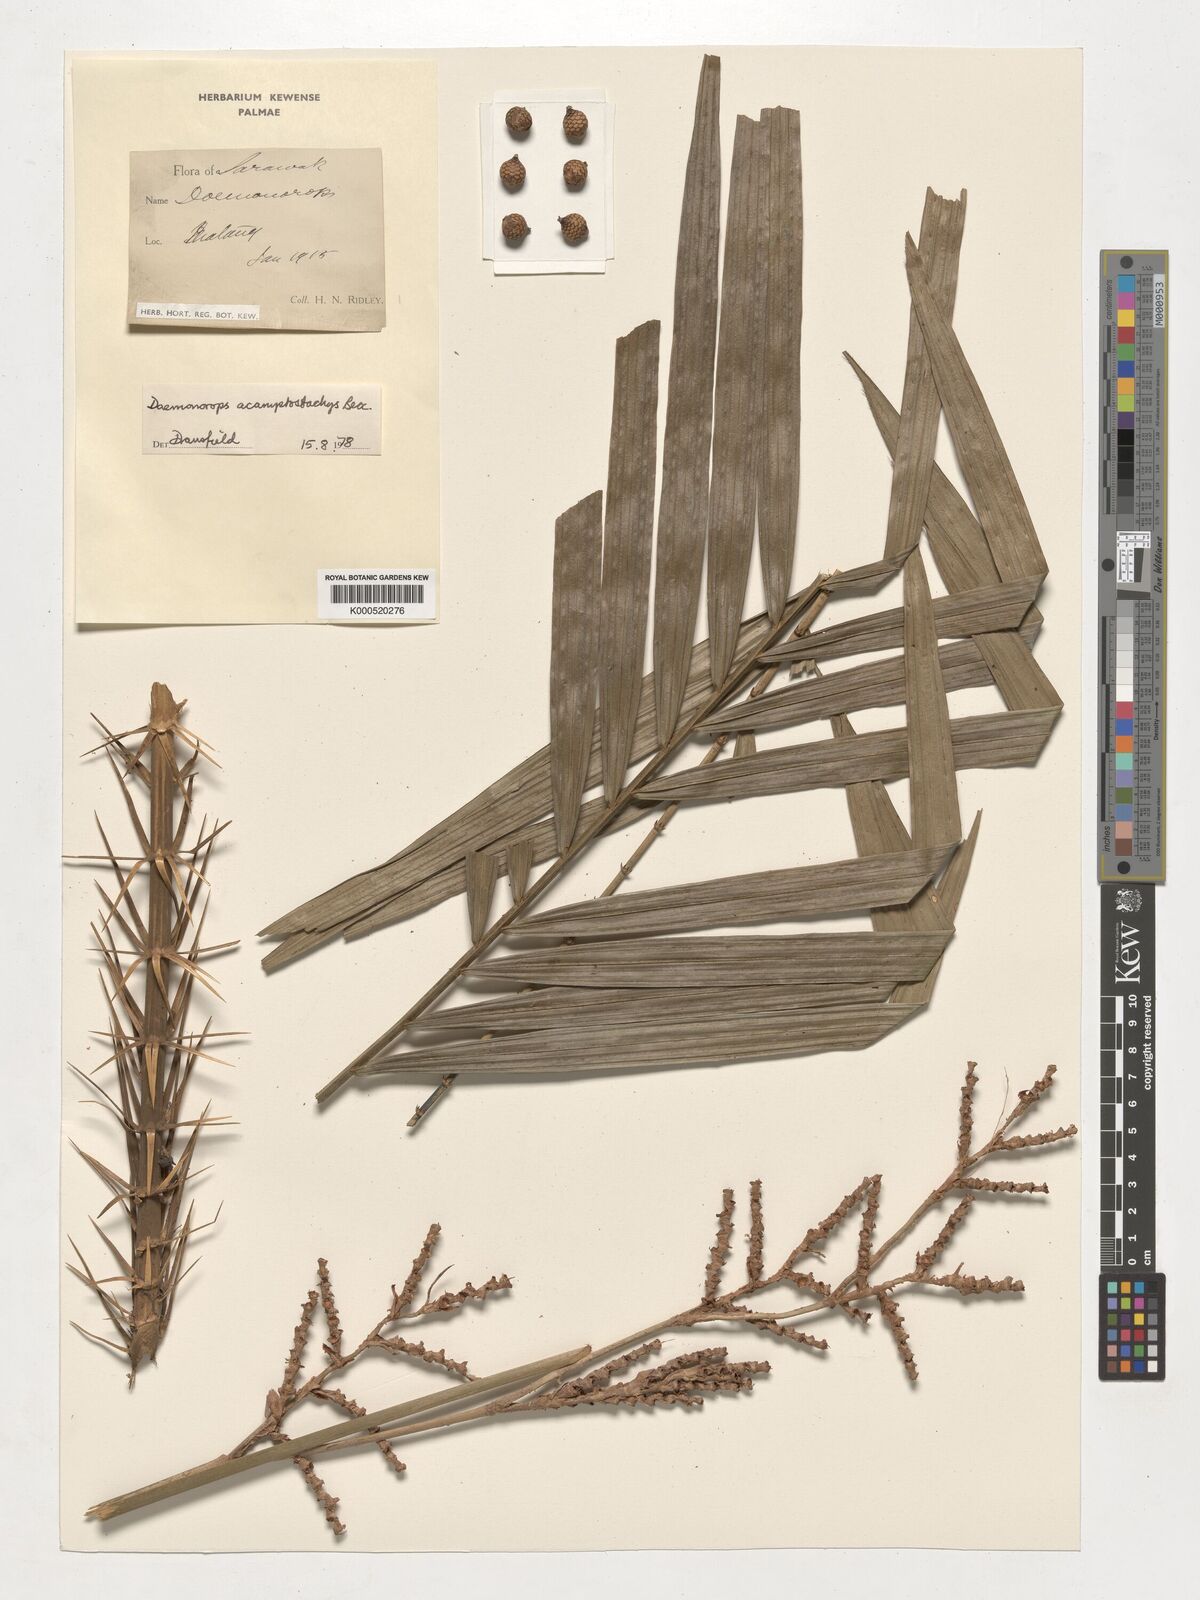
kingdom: Plantae
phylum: Tracheophyta
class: Liliopsida
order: Arecales
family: Arecaceae
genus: Calamus
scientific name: Calamus acamptostachys
